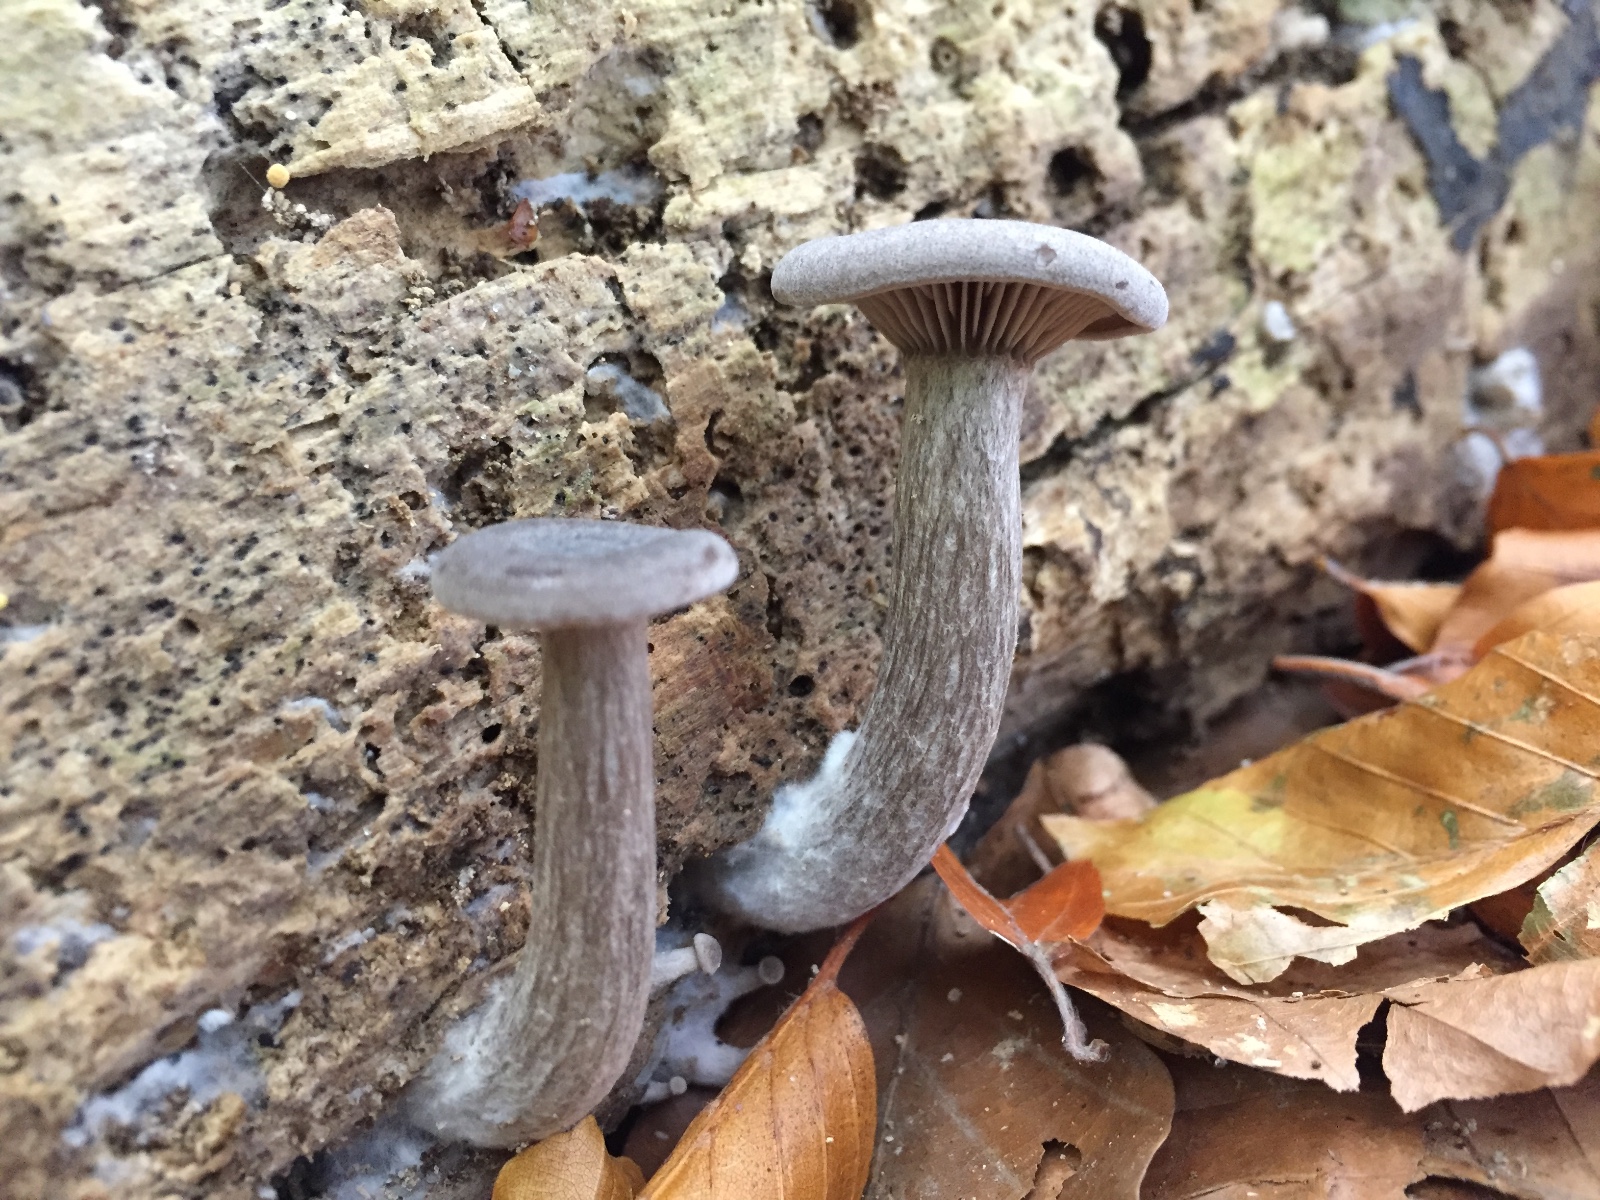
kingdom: Fungi
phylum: Basidiomycota
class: Agaricomycetes
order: Agaricales
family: Pseudoclitocybaceae
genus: Pseudoclitocybe
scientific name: Pseudoclitocybe cyathiformis
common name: almindelig bægertragthat
